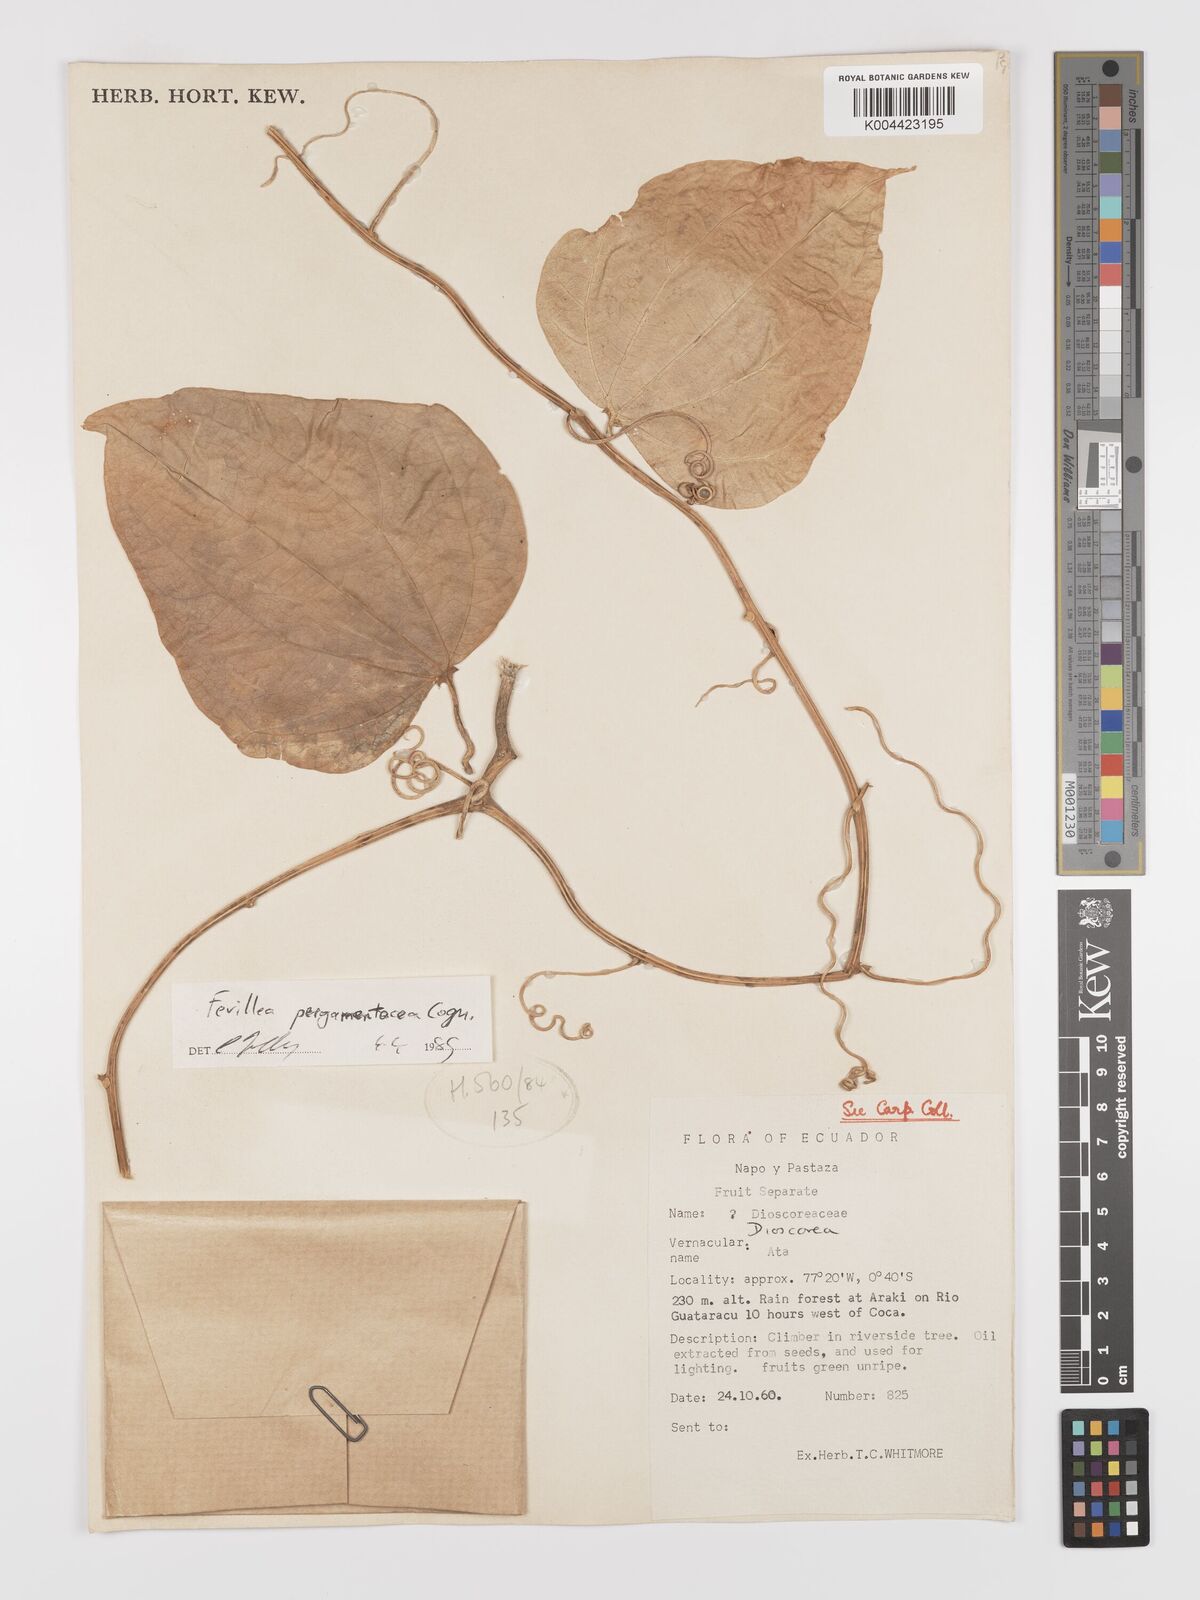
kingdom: Plantae
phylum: Tracheophyta
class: Magnoliopsida
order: Cucurbitales
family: Cucurbitaceae
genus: Fevillea
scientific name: Fevillea pergamentacea
